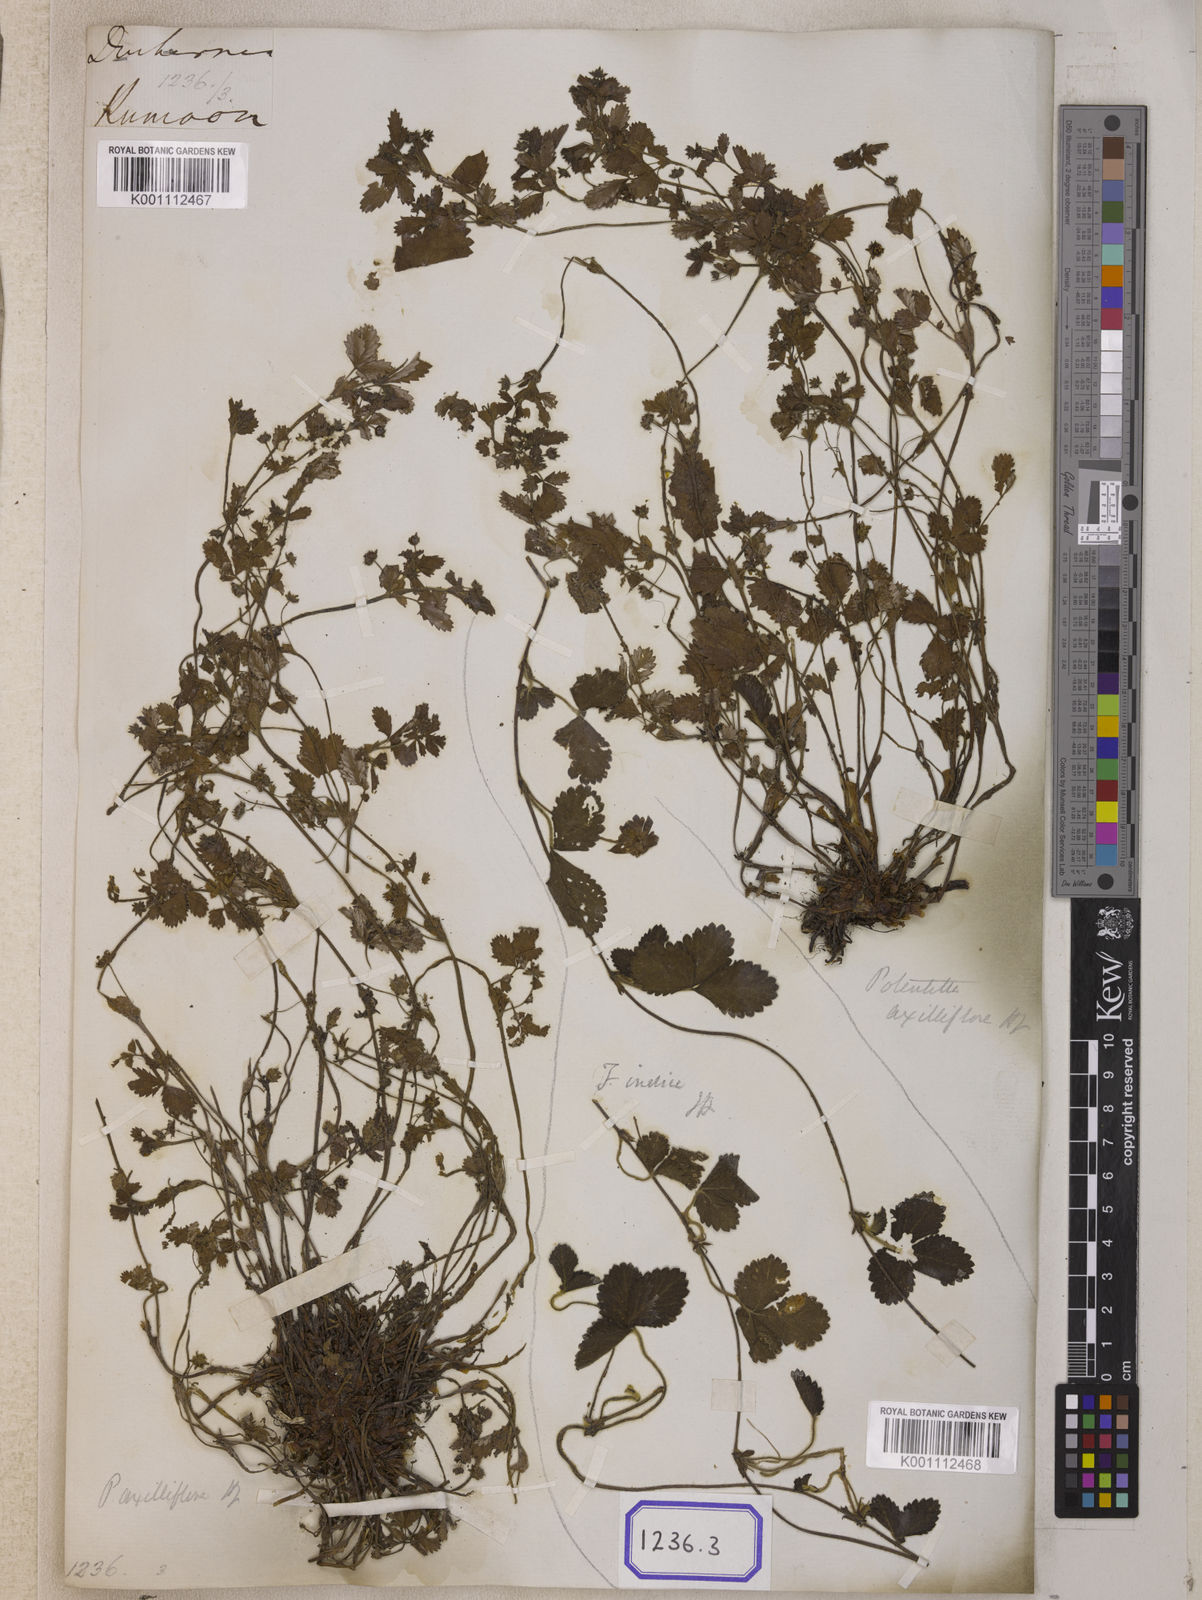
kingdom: Plantae
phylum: Tracheophyta
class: Magnoliopsida
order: Rosales
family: Rosaceae
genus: Potentilla
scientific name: Potentilla indica
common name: Yellow-flowered strawberry
